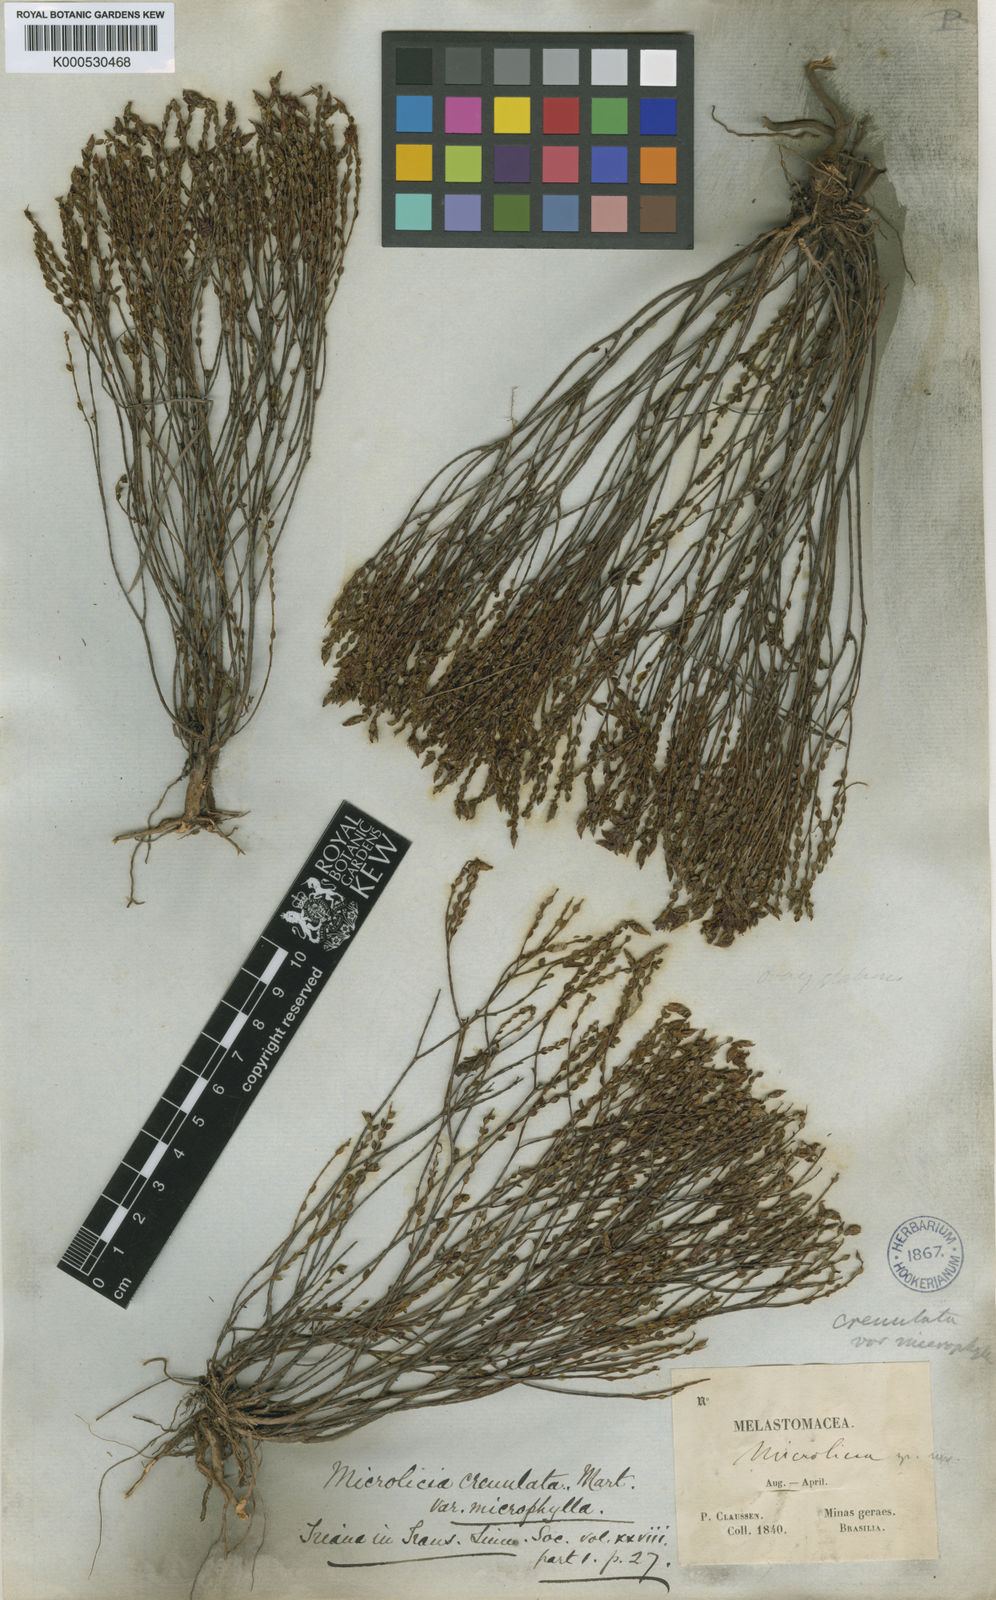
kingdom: Plantae
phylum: Tracheophyta
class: Magnoliopsida
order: Myrtales
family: Melastomataceae
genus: Microlicia
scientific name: Microlicia
